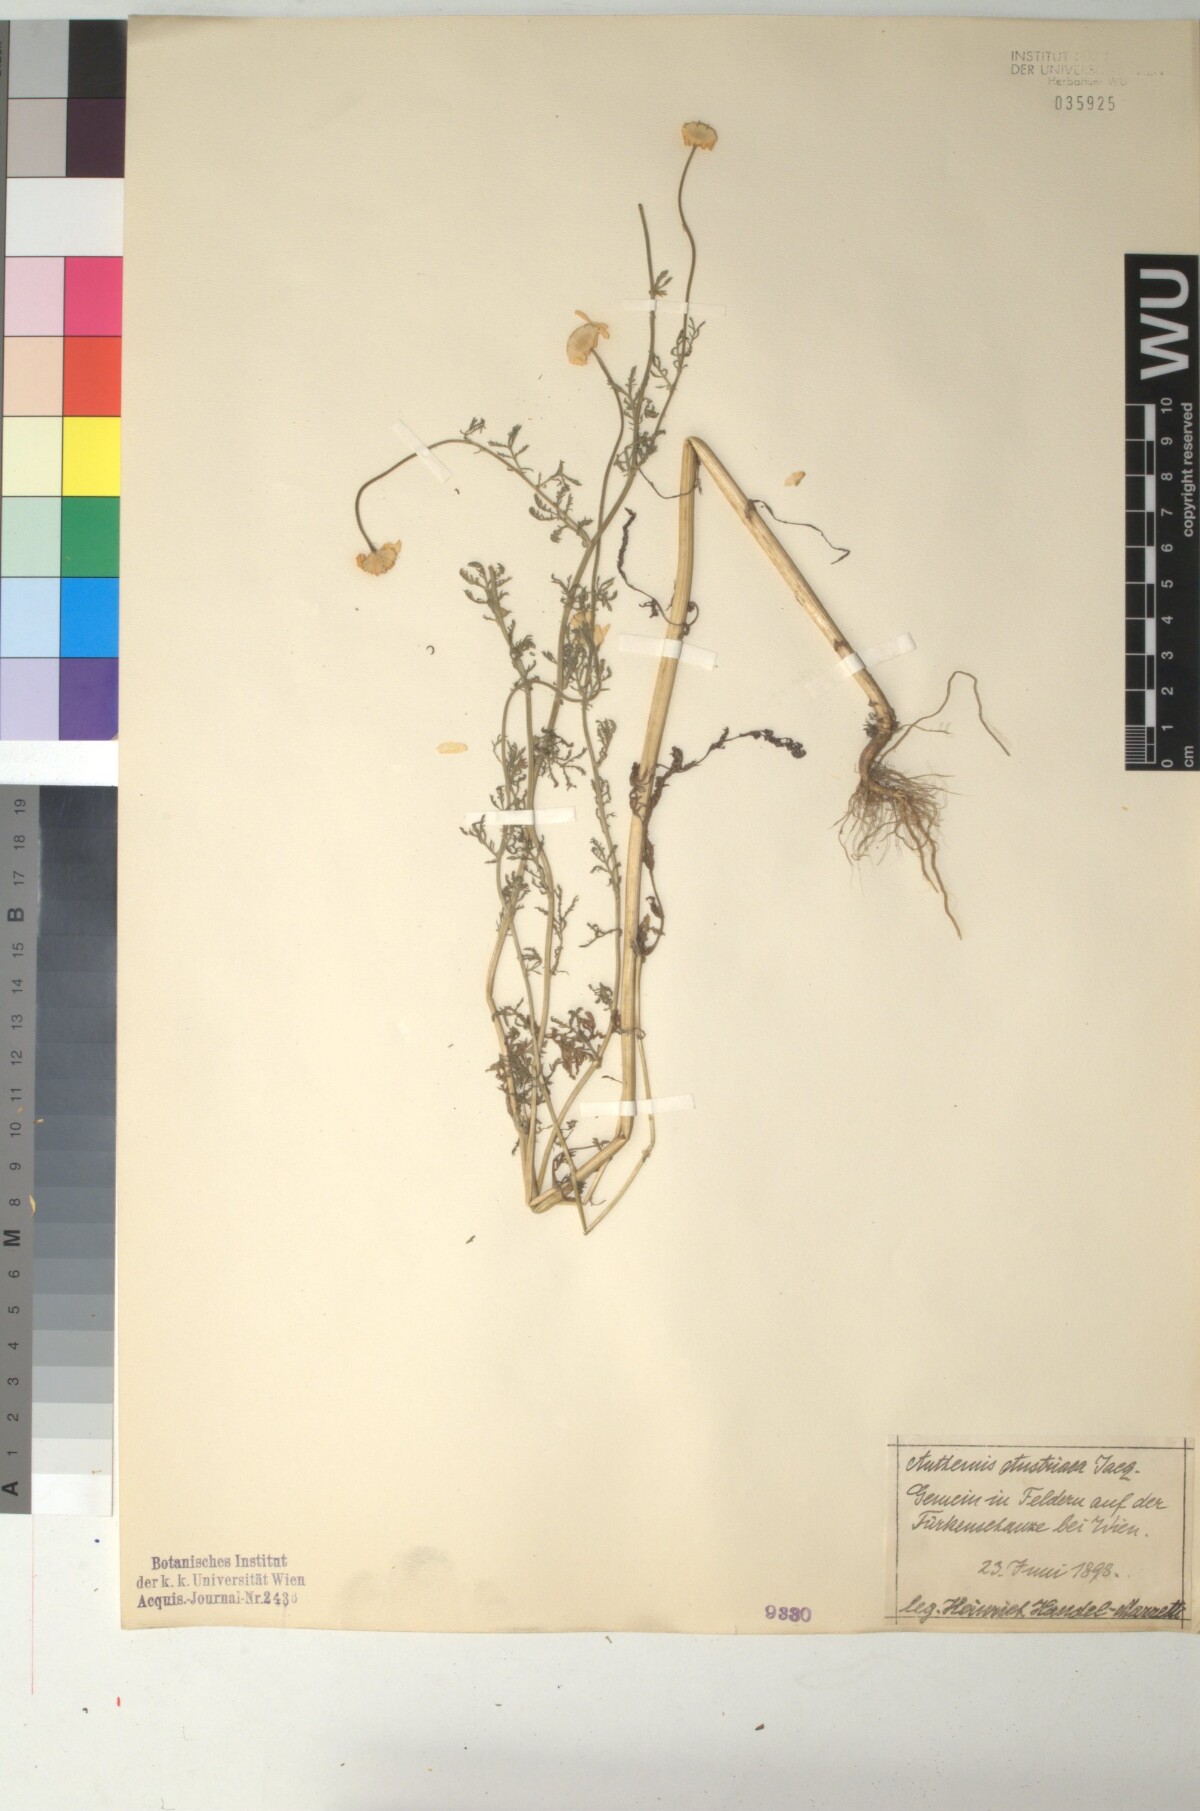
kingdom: Plantae
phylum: Tracheophyta
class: Magnoliopsida
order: Asterales
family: Asteraceae
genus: Cota
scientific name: Cota austriaca
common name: Austrian chamomile
